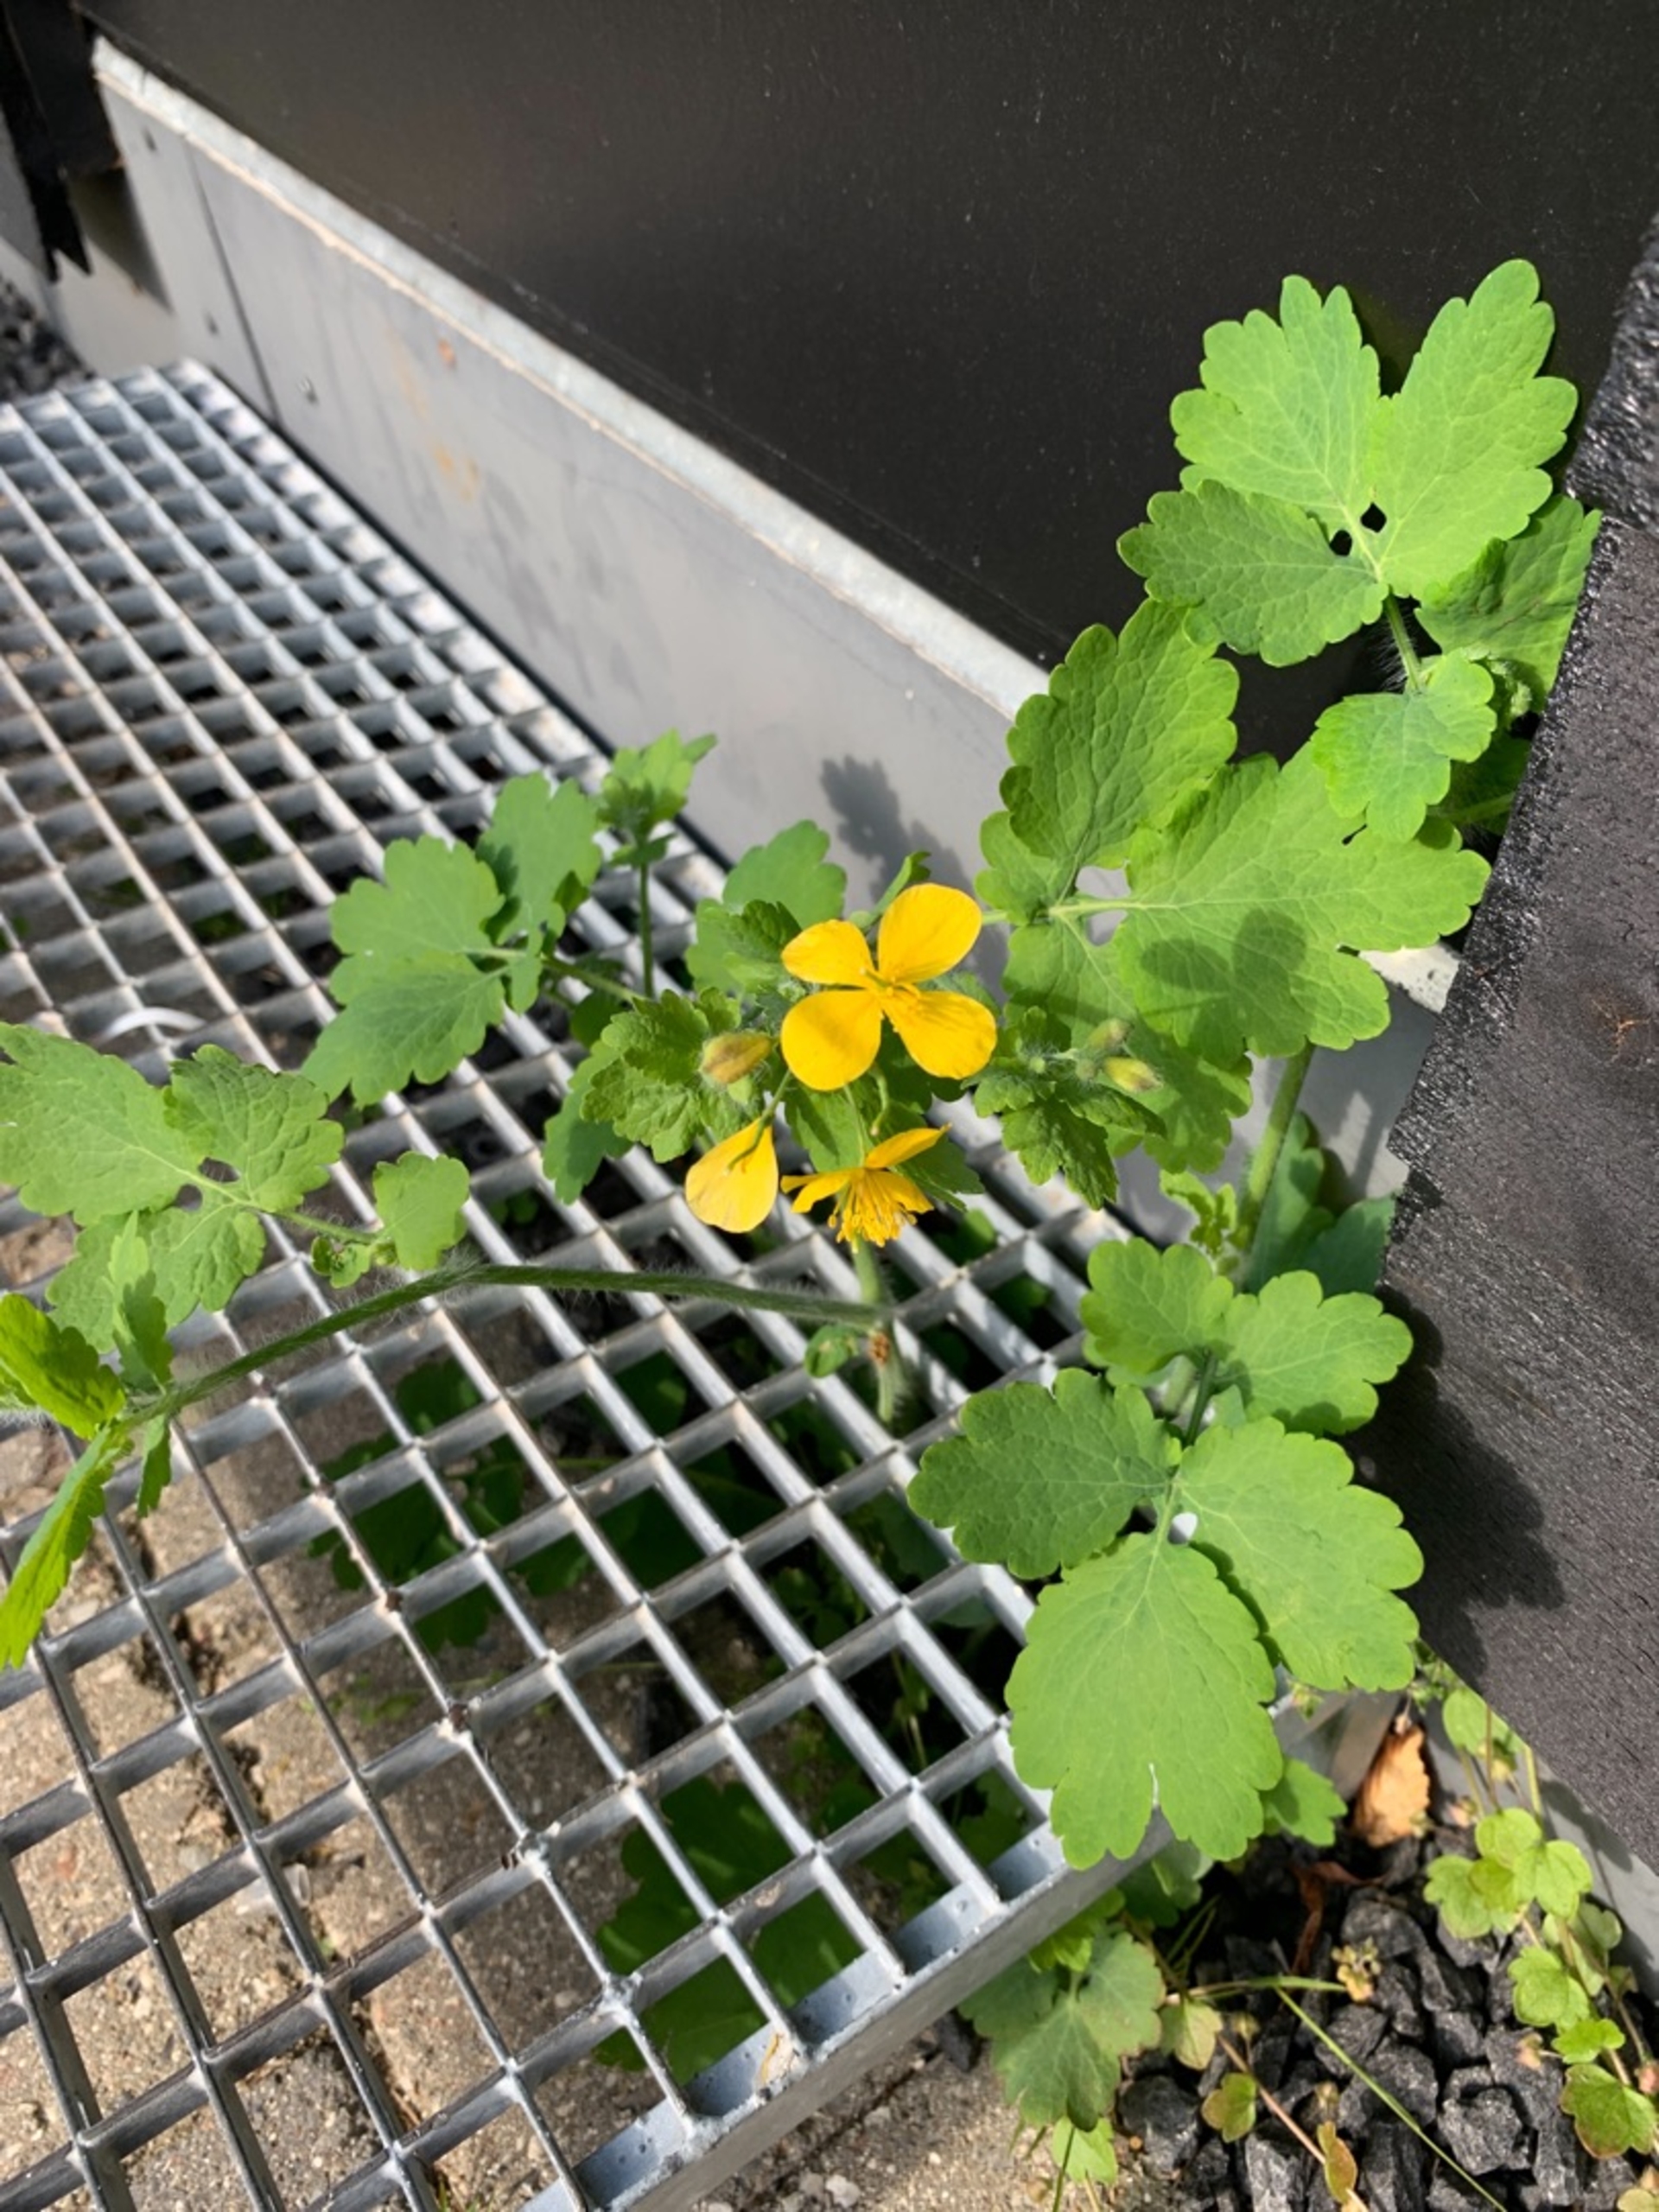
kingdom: Plantae
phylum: Tracheophyta
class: Magnoliopsida
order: Ranunculales
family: Papaveraceae
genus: Chelidonium
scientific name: Chelidonium majus
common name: Svaleurt
